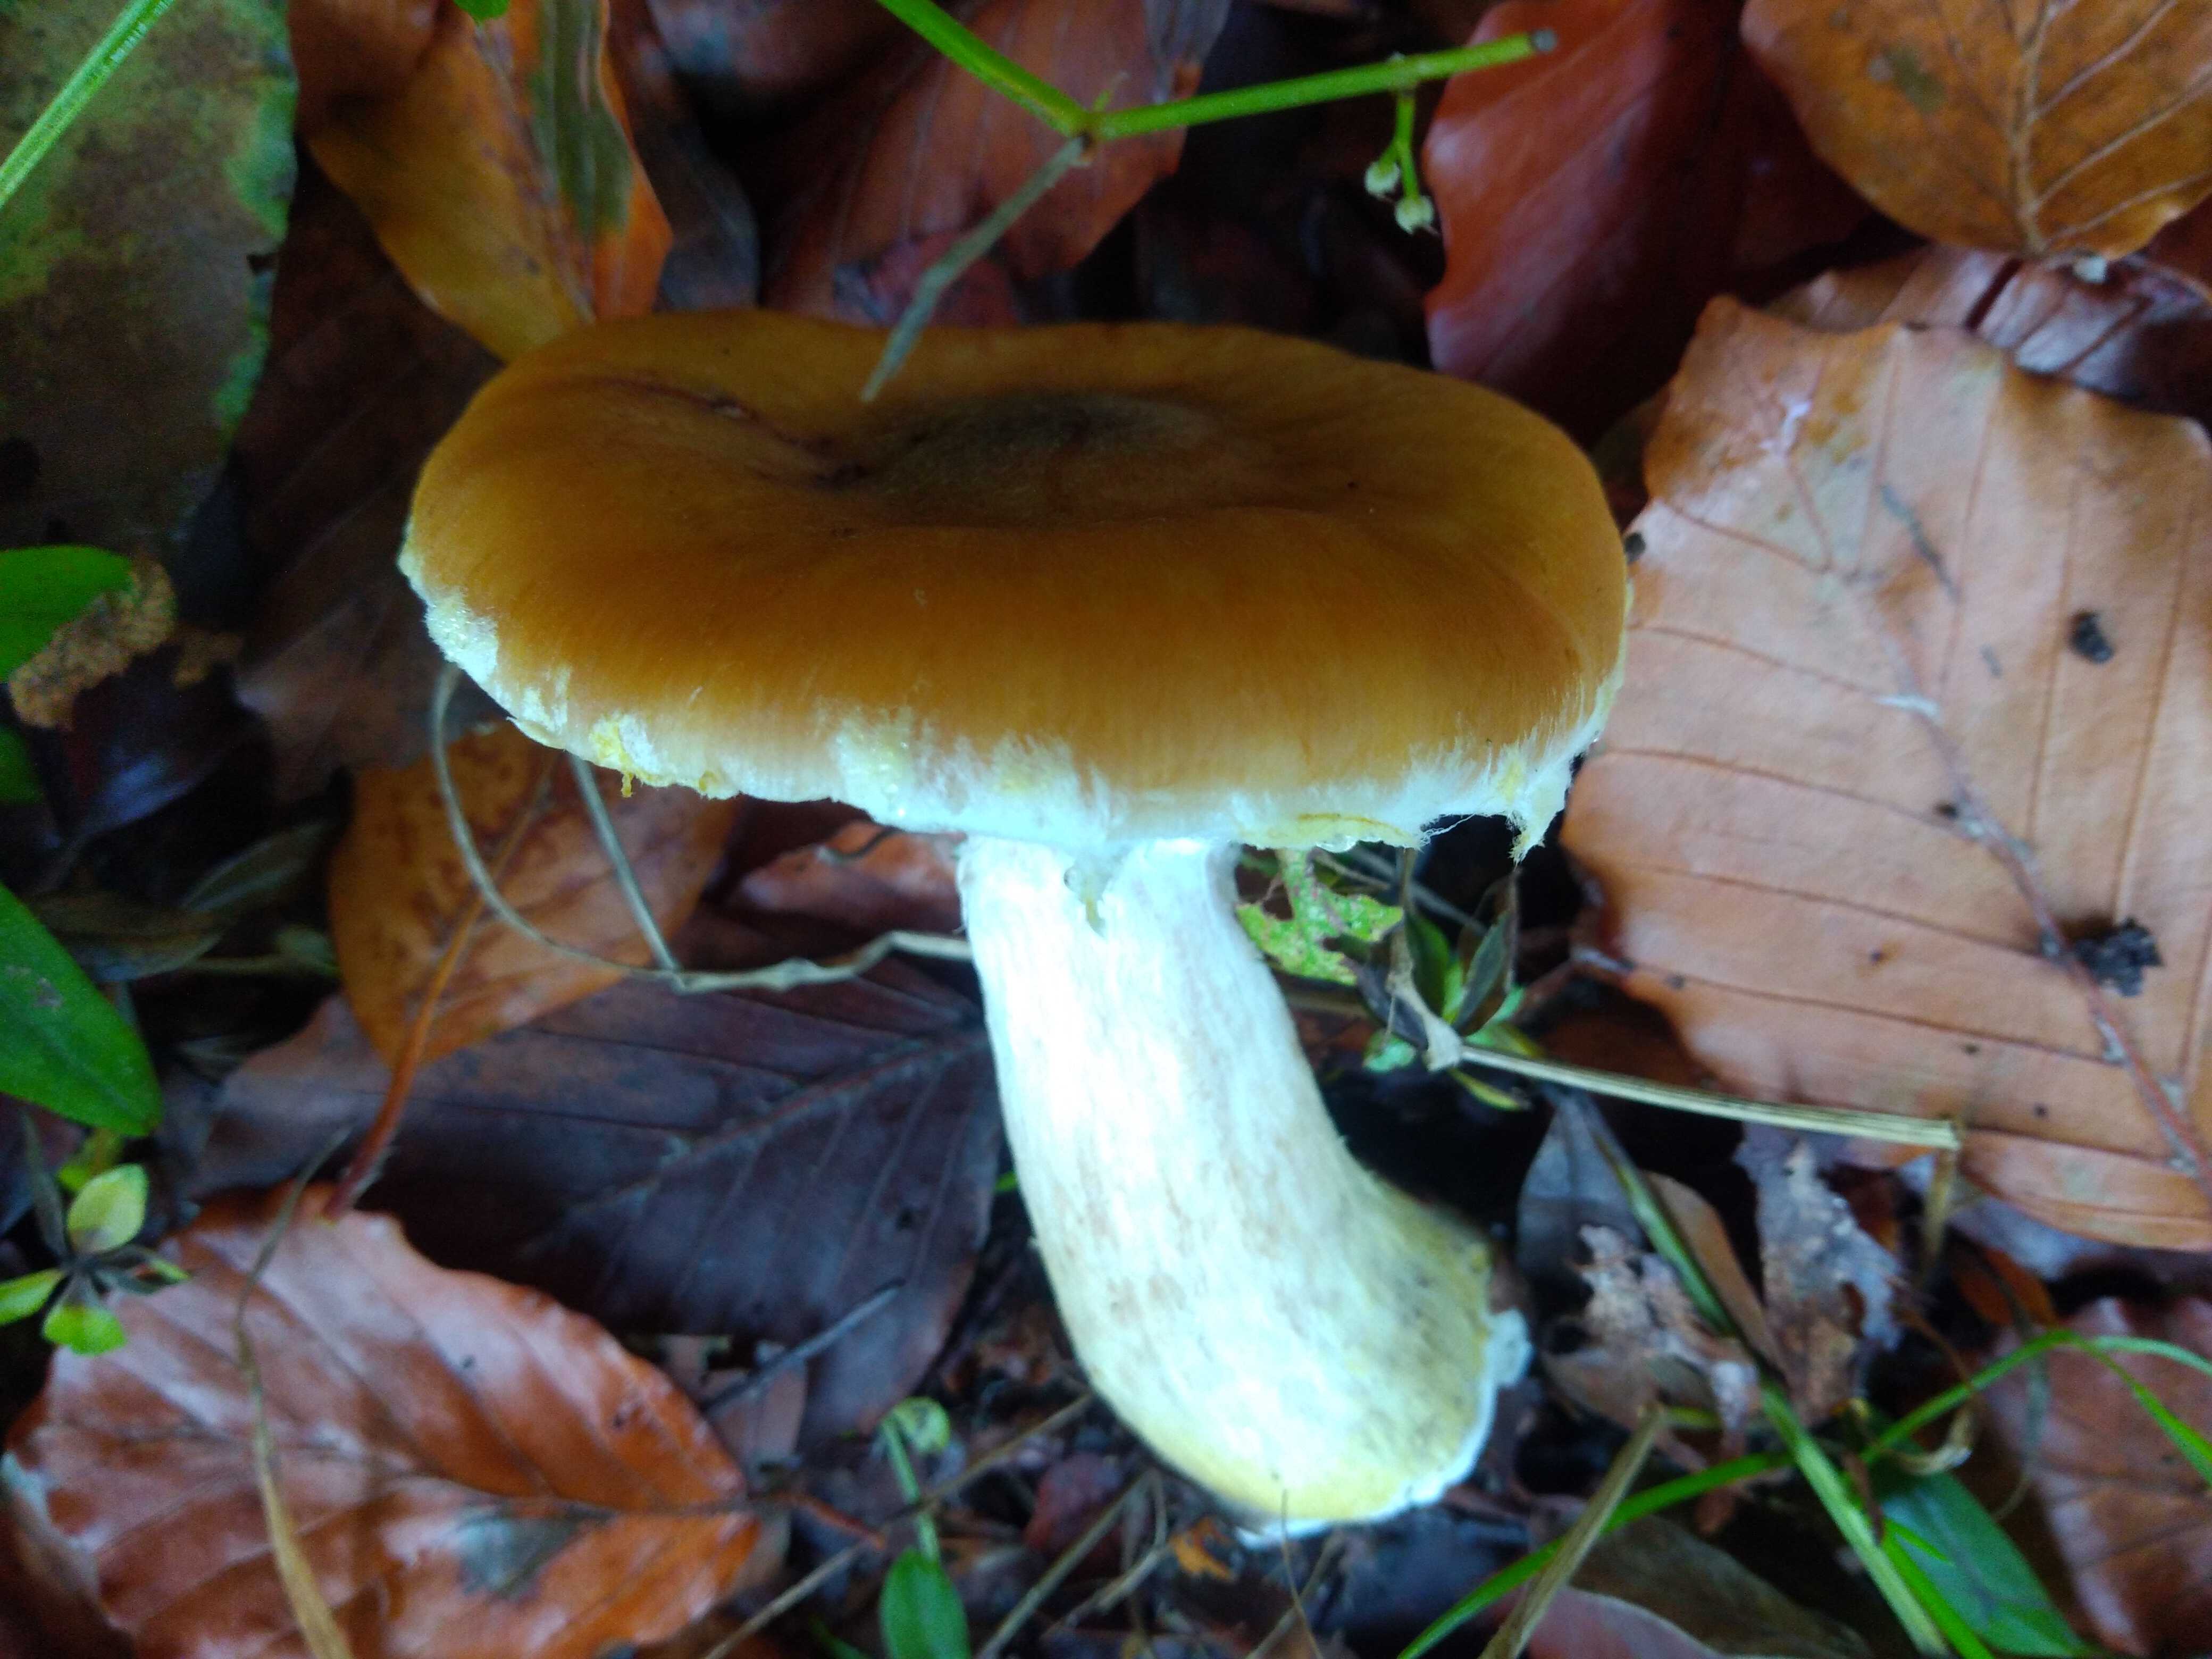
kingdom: Fungi
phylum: Basidiomycota
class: Agaricomycetes
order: Agaricales
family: Physalacriaceae
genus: Armillaria
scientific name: Armillaria lutea
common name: køllestokket honningsvamp
